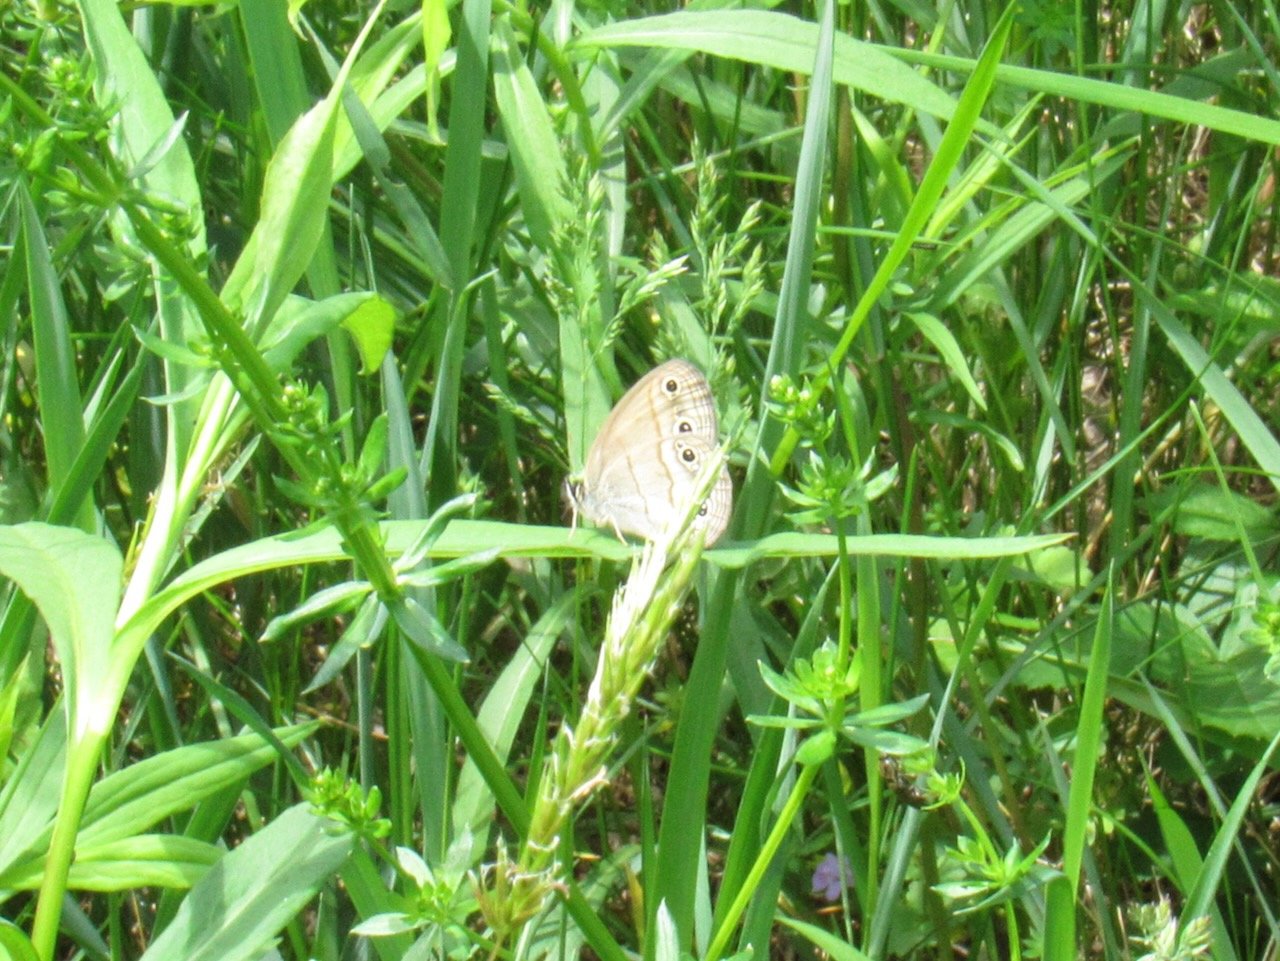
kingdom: Animalia
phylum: Arthropoda
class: Insecta
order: Lepidoptera
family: Nymphalidae
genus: Euptychia
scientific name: Euptychia cymela
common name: Little Wood Satyr
